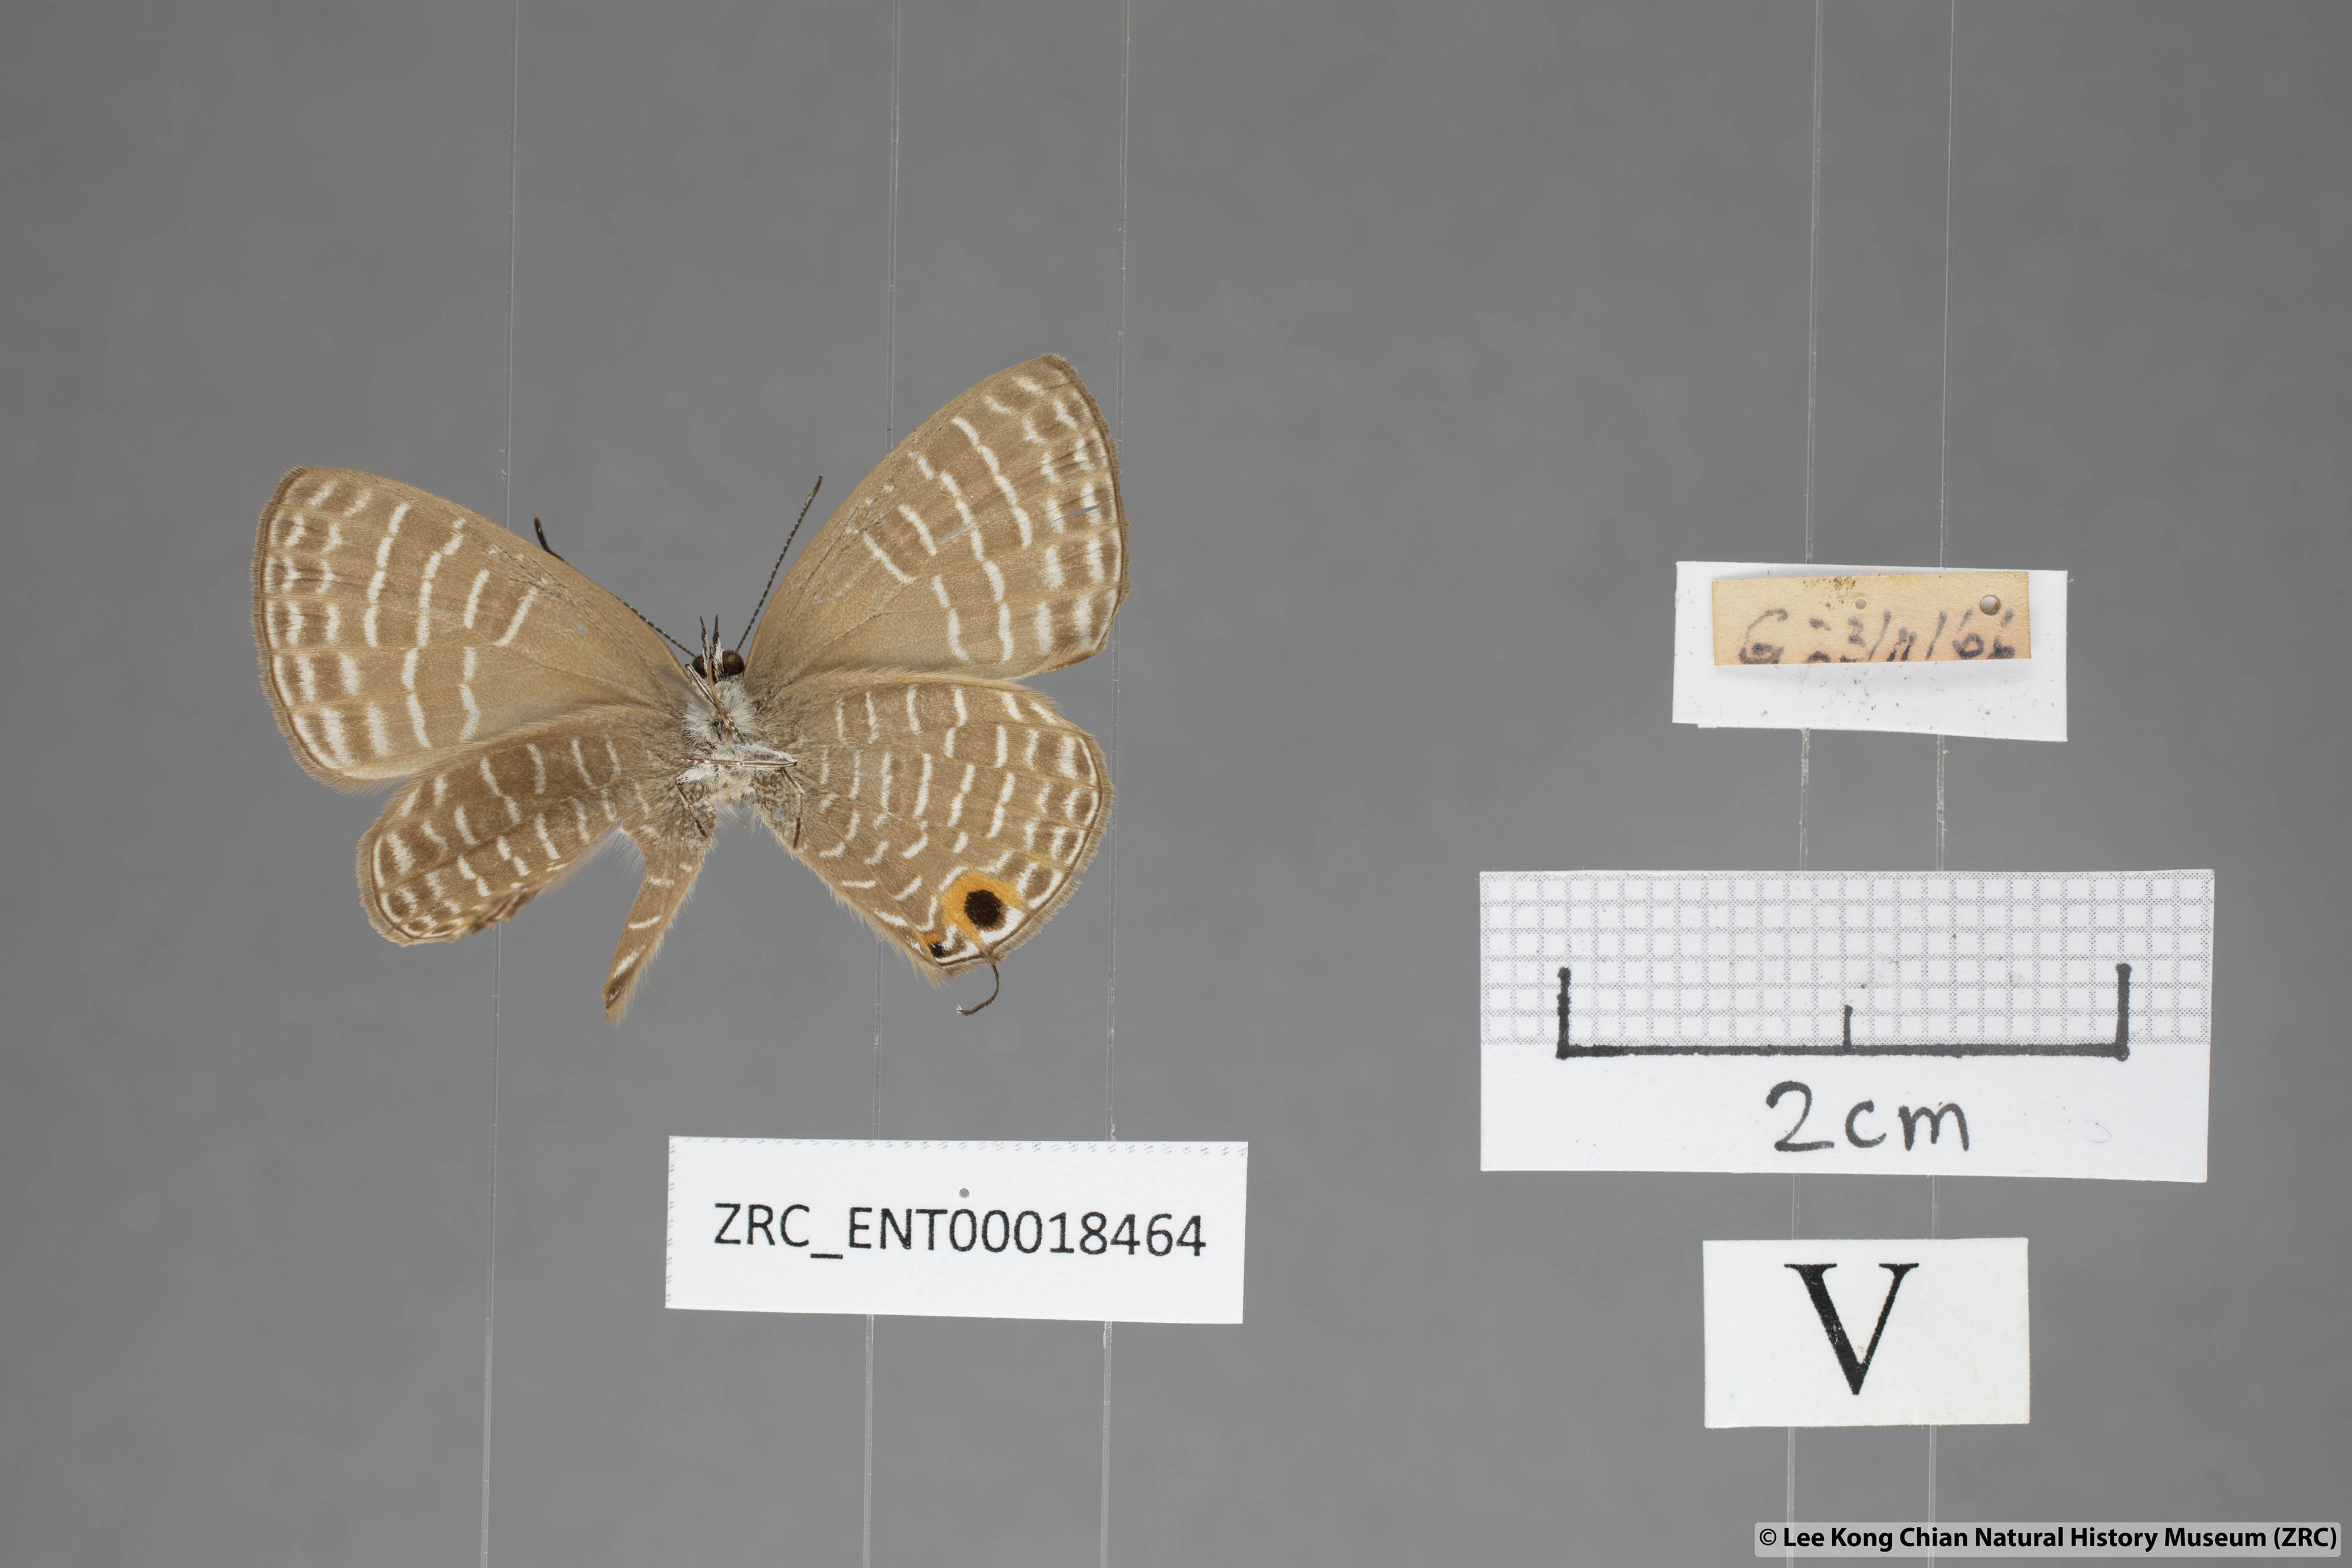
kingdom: Animalia
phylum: Arthropoda
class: Insecta
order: Lepidoptera
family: Lycaenidae
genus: Nacaduba
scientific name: Nacaduba solta
